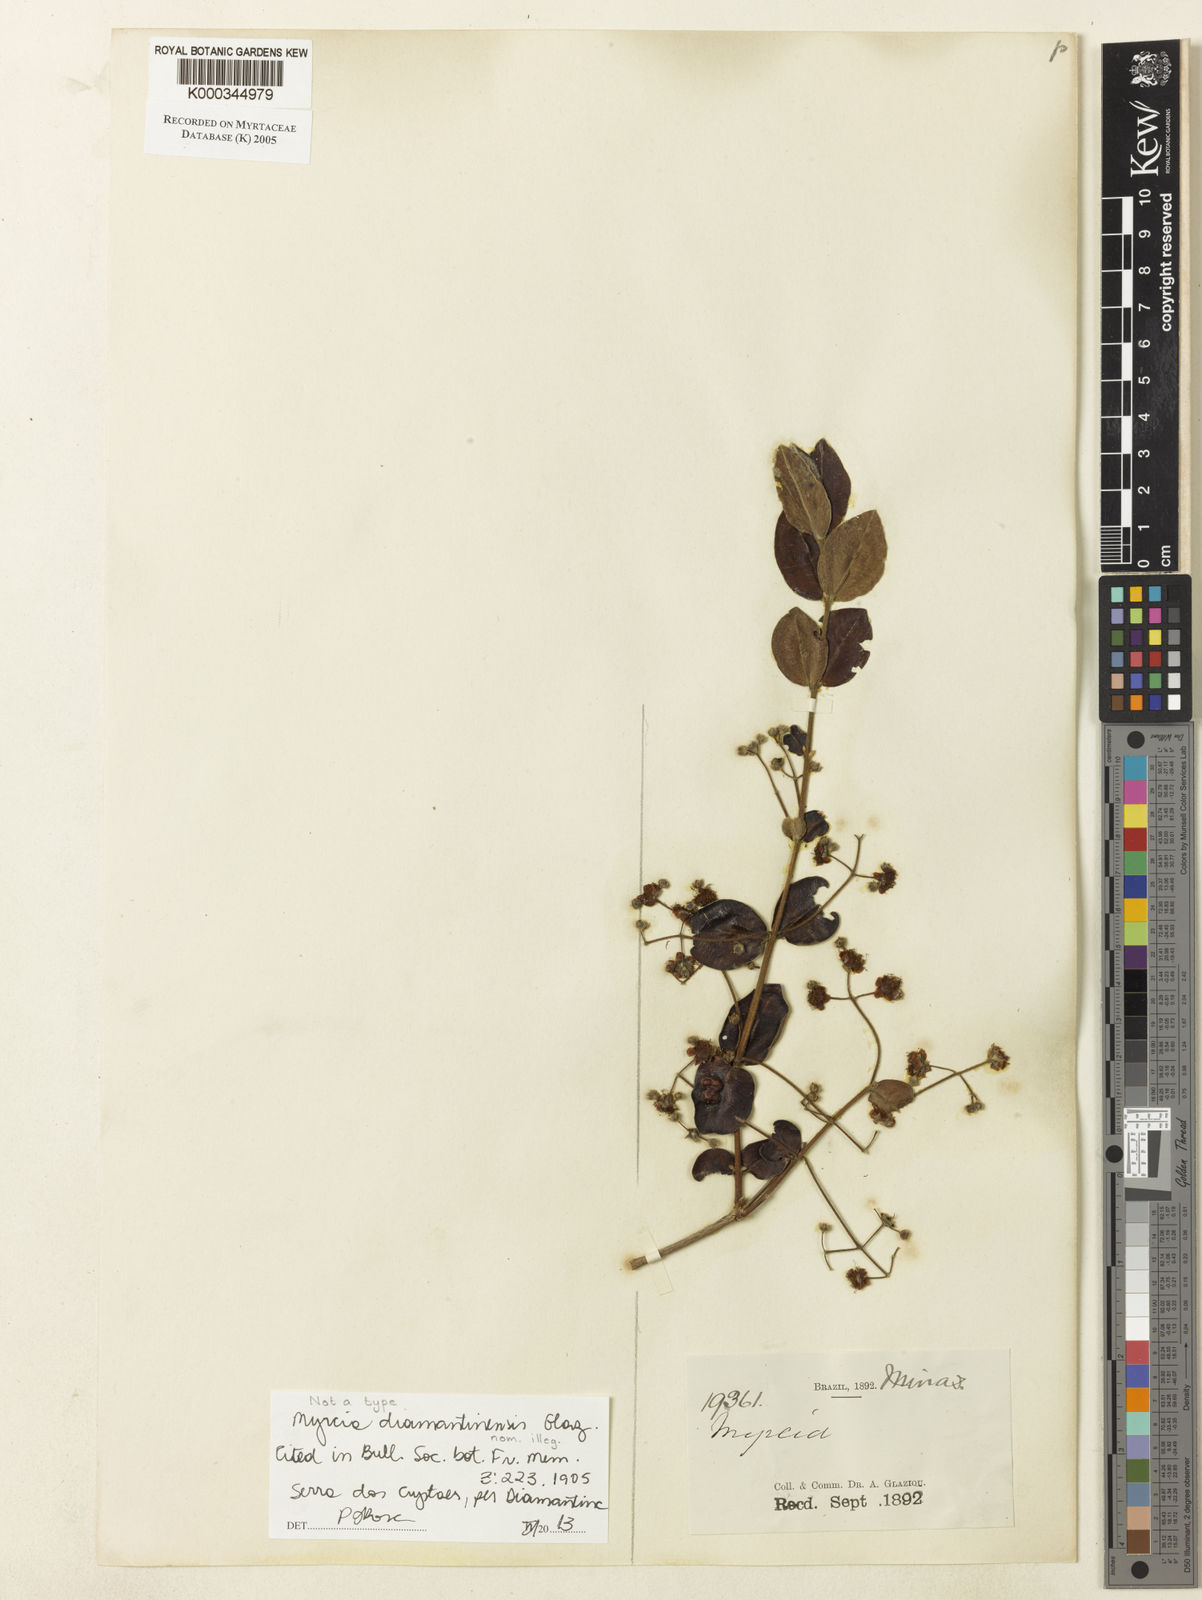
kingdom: Plantae
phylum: Tracheophyta
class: Magnoliopsida
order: Myrtales
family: Myrtaceae
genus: Myrcia
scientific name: Myrcia
